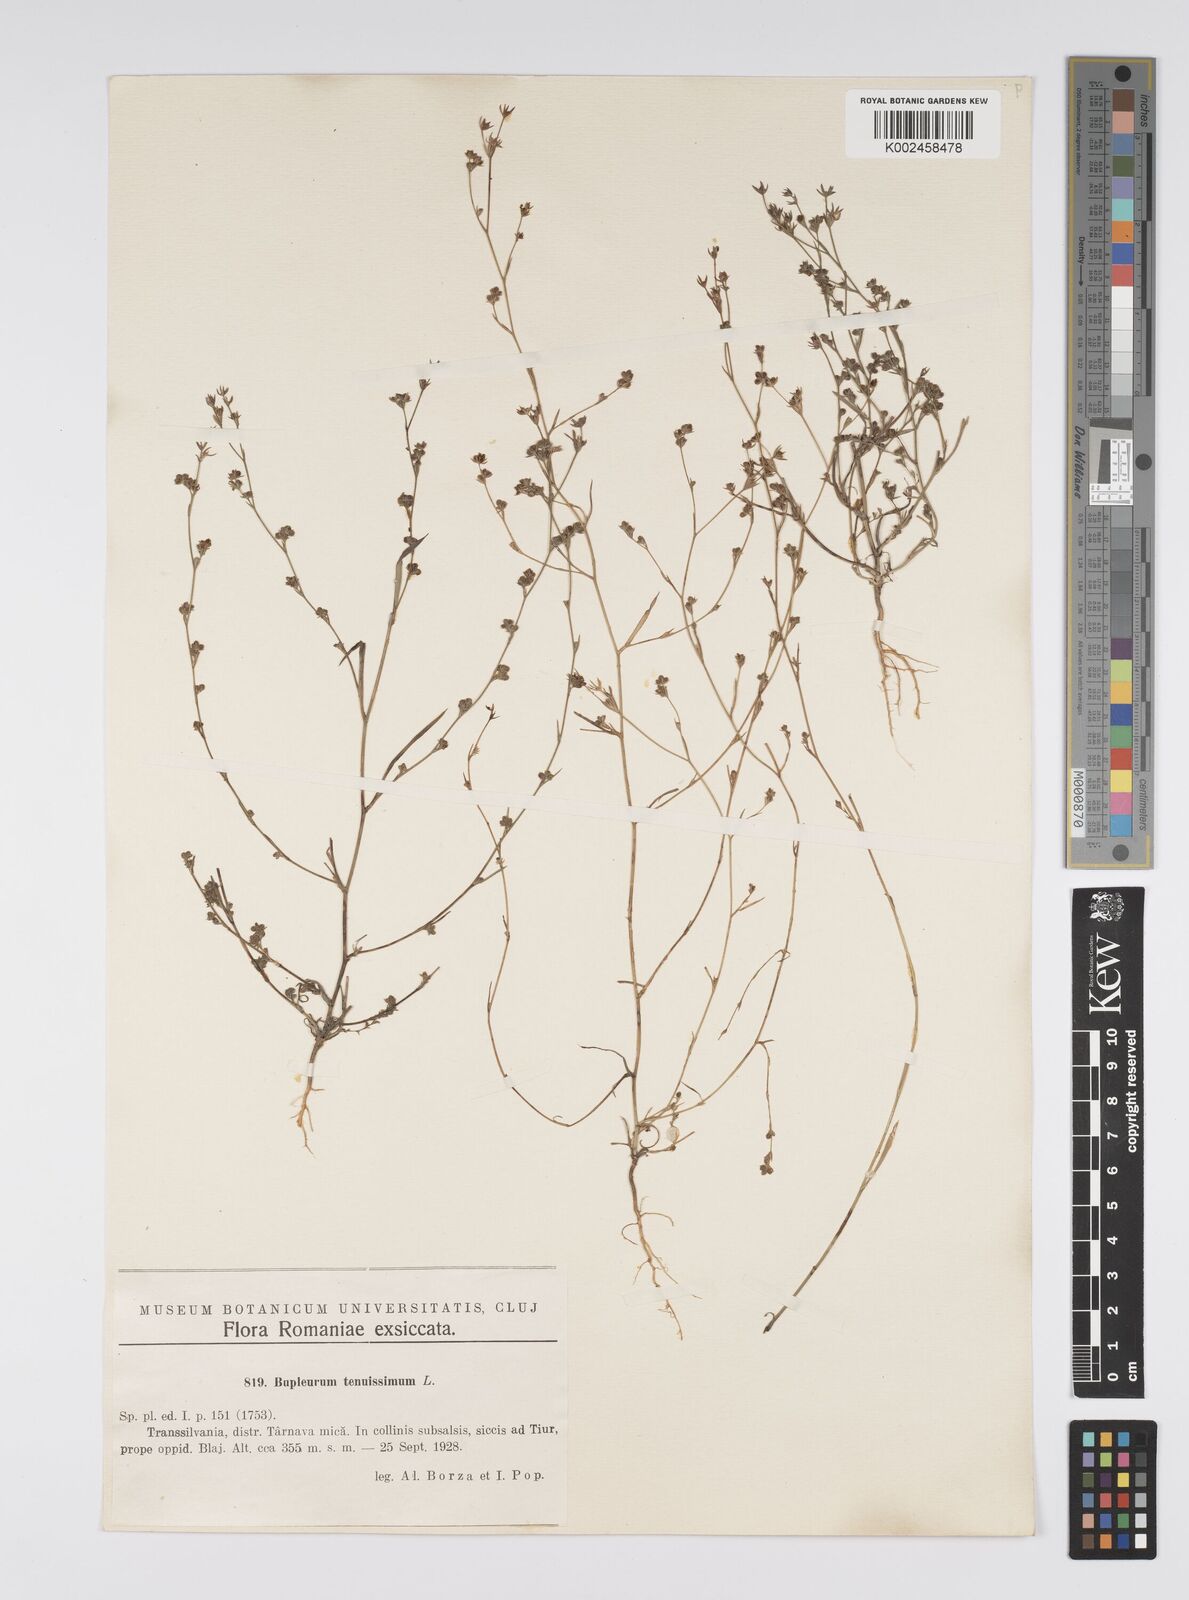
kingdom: Plantae
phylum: Tracheophyta
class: Magnoliopsida
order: Apiales
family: Apiaceae
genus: Bupleurum
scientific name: Bupleurum tenuissimum
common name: Slender hare's-ear
